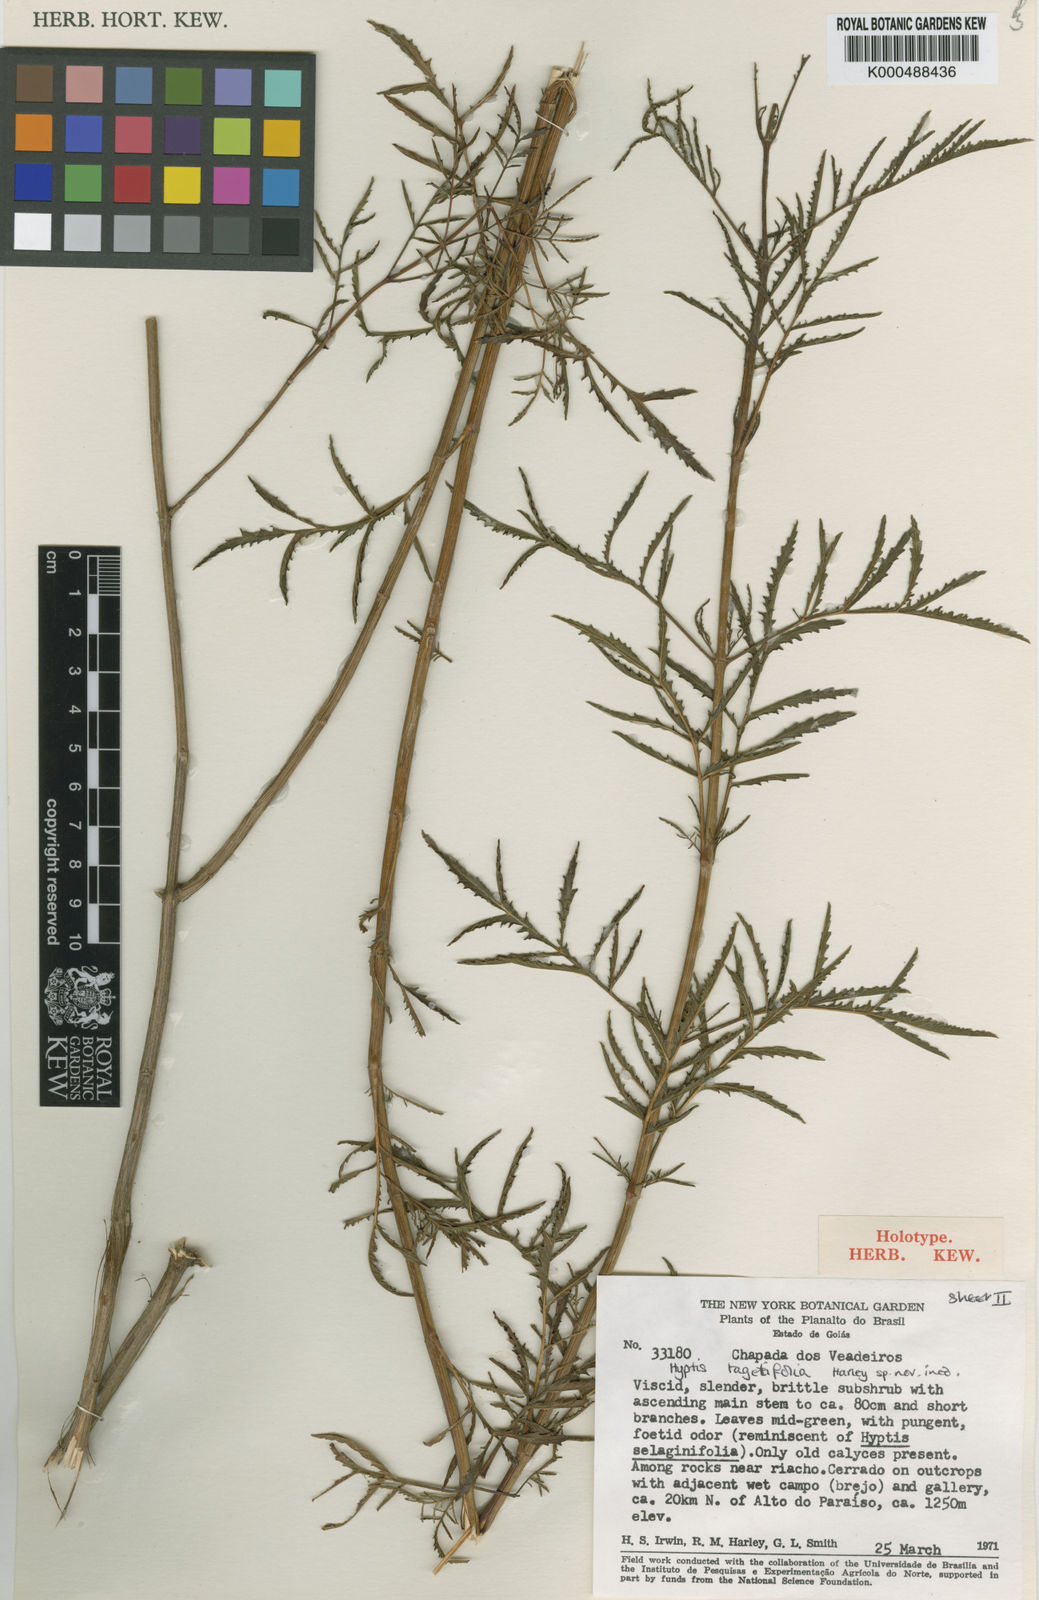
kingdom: Plantae
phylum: Tracheophyta
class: Magnoliopsida
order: Lamiales
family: Lamiaceae
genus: Cyanocephalus
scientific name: Cyanocephalus tagetifolius
